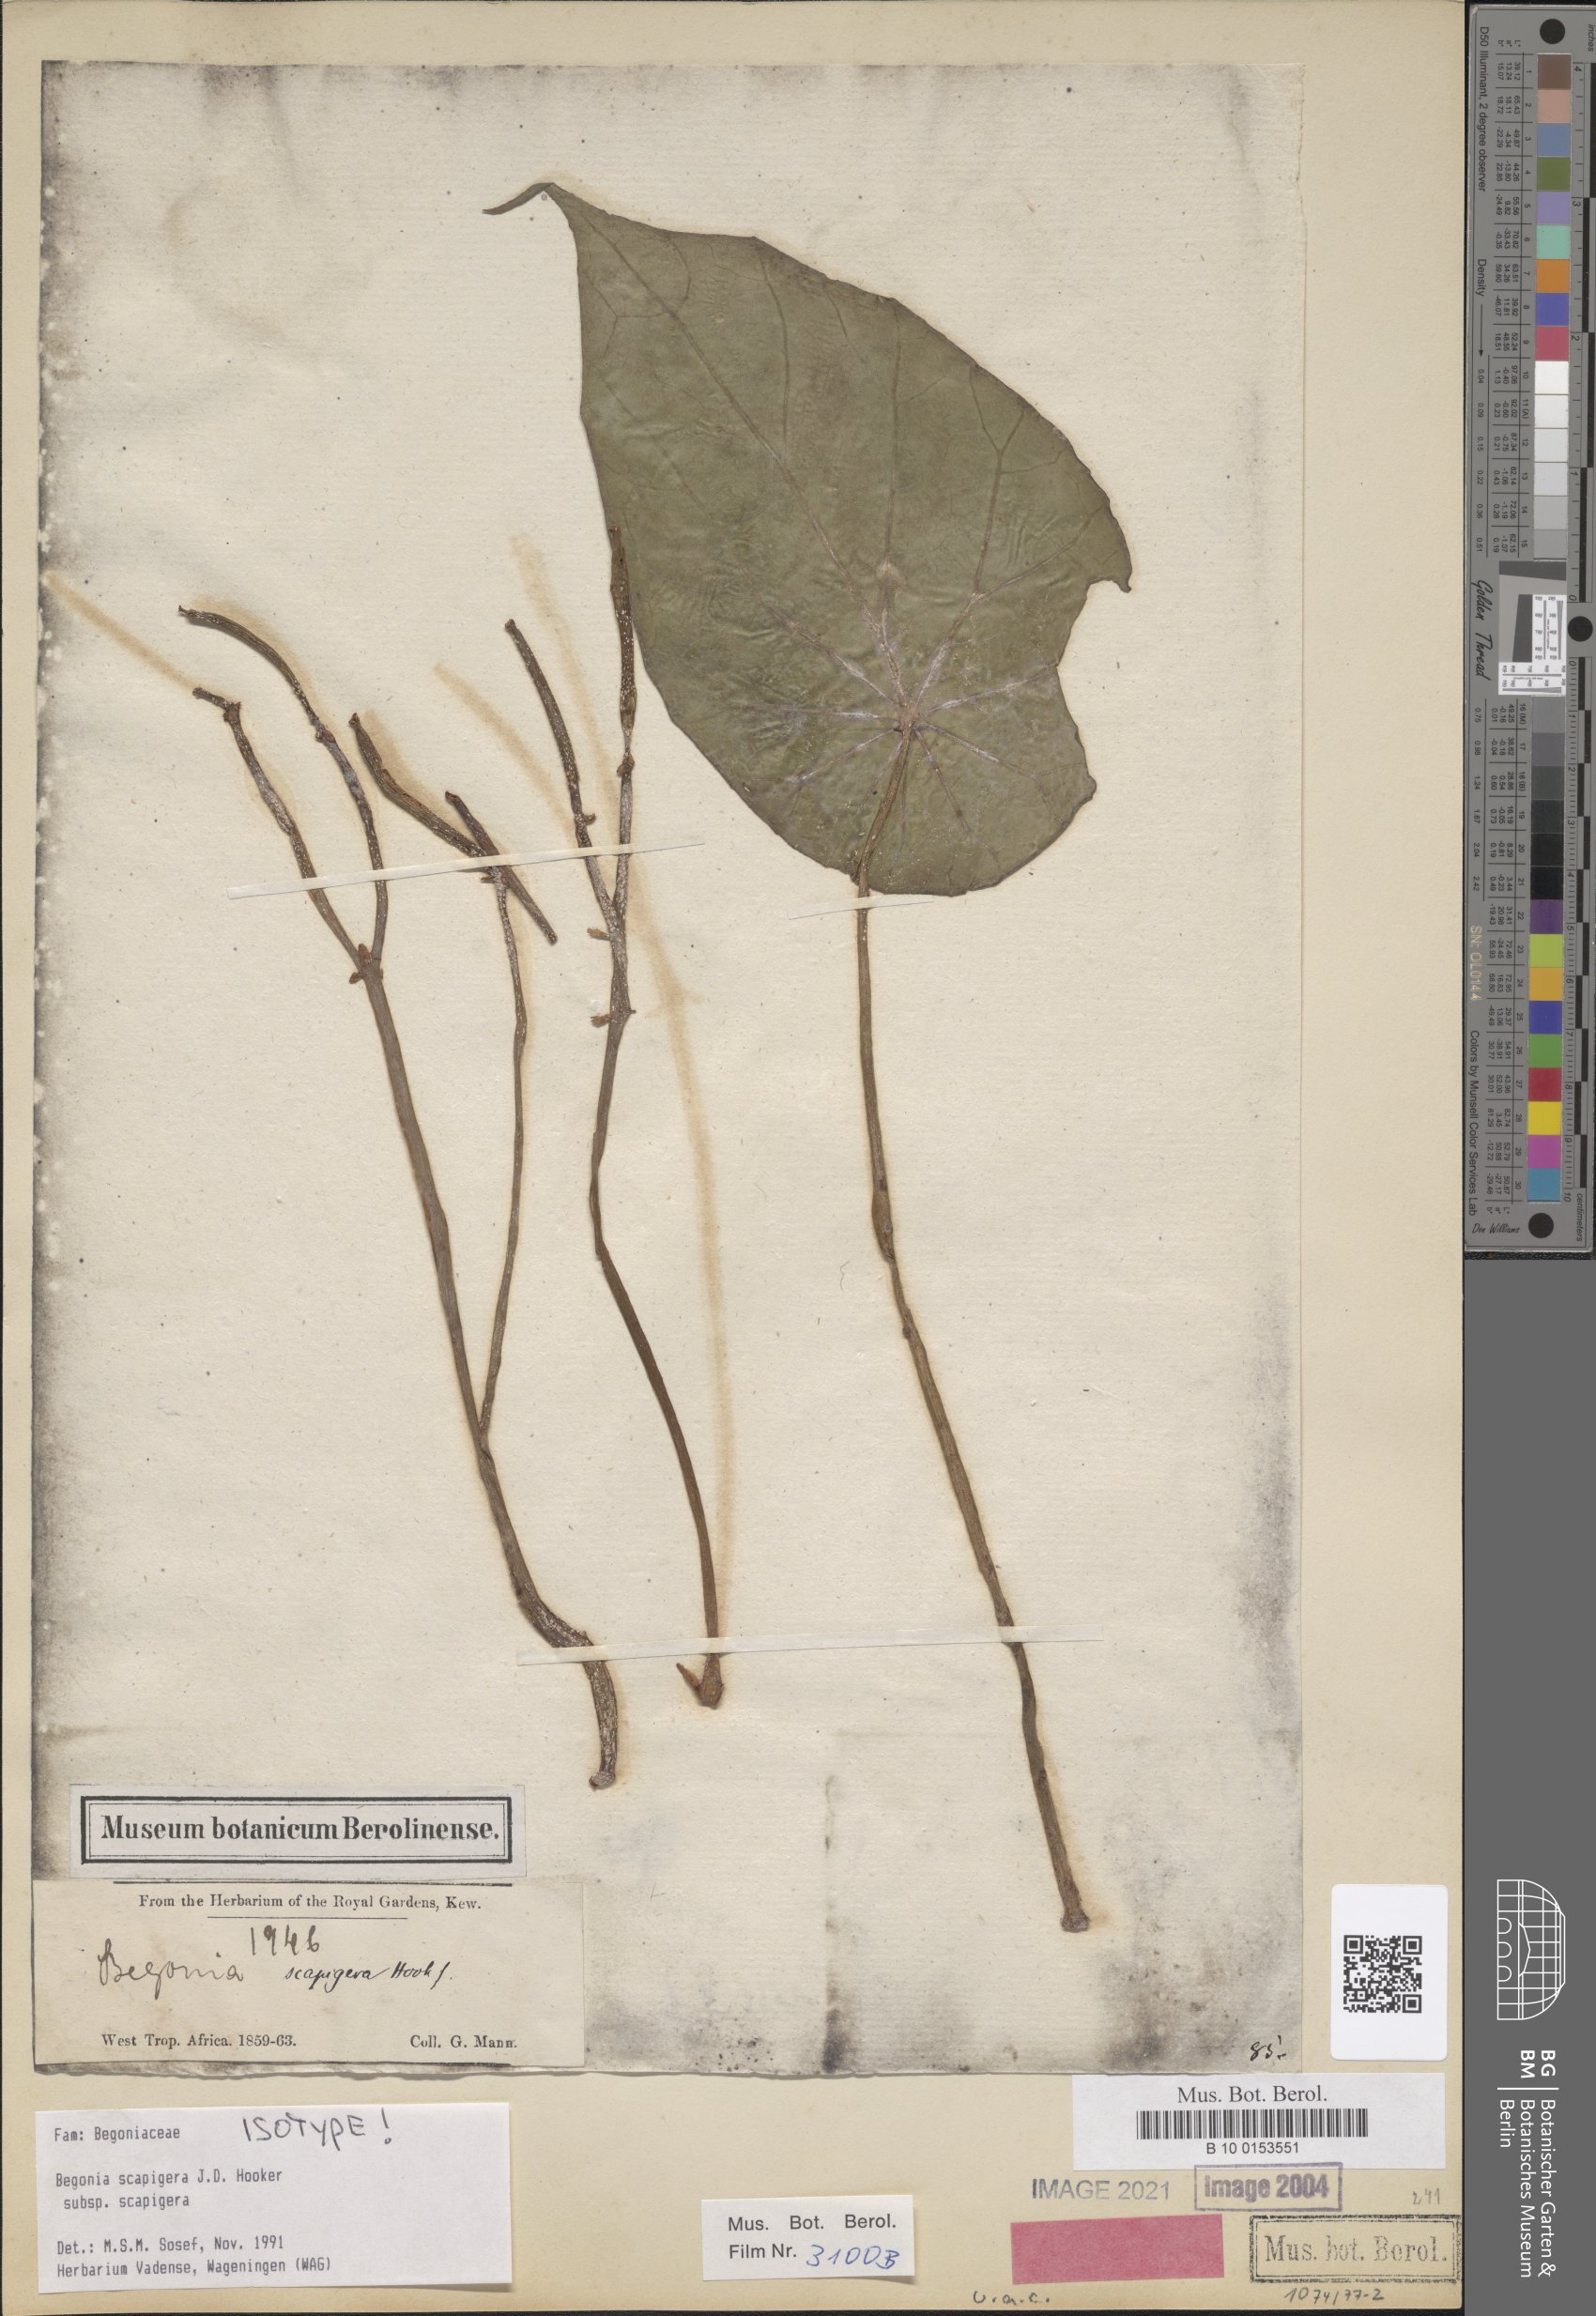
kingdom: Plantae
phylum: Tracheophyta
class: Magnoliopsida
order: Cucurbitales
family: Begoniaceae
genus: Begonia
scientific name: Begonia scapigera
